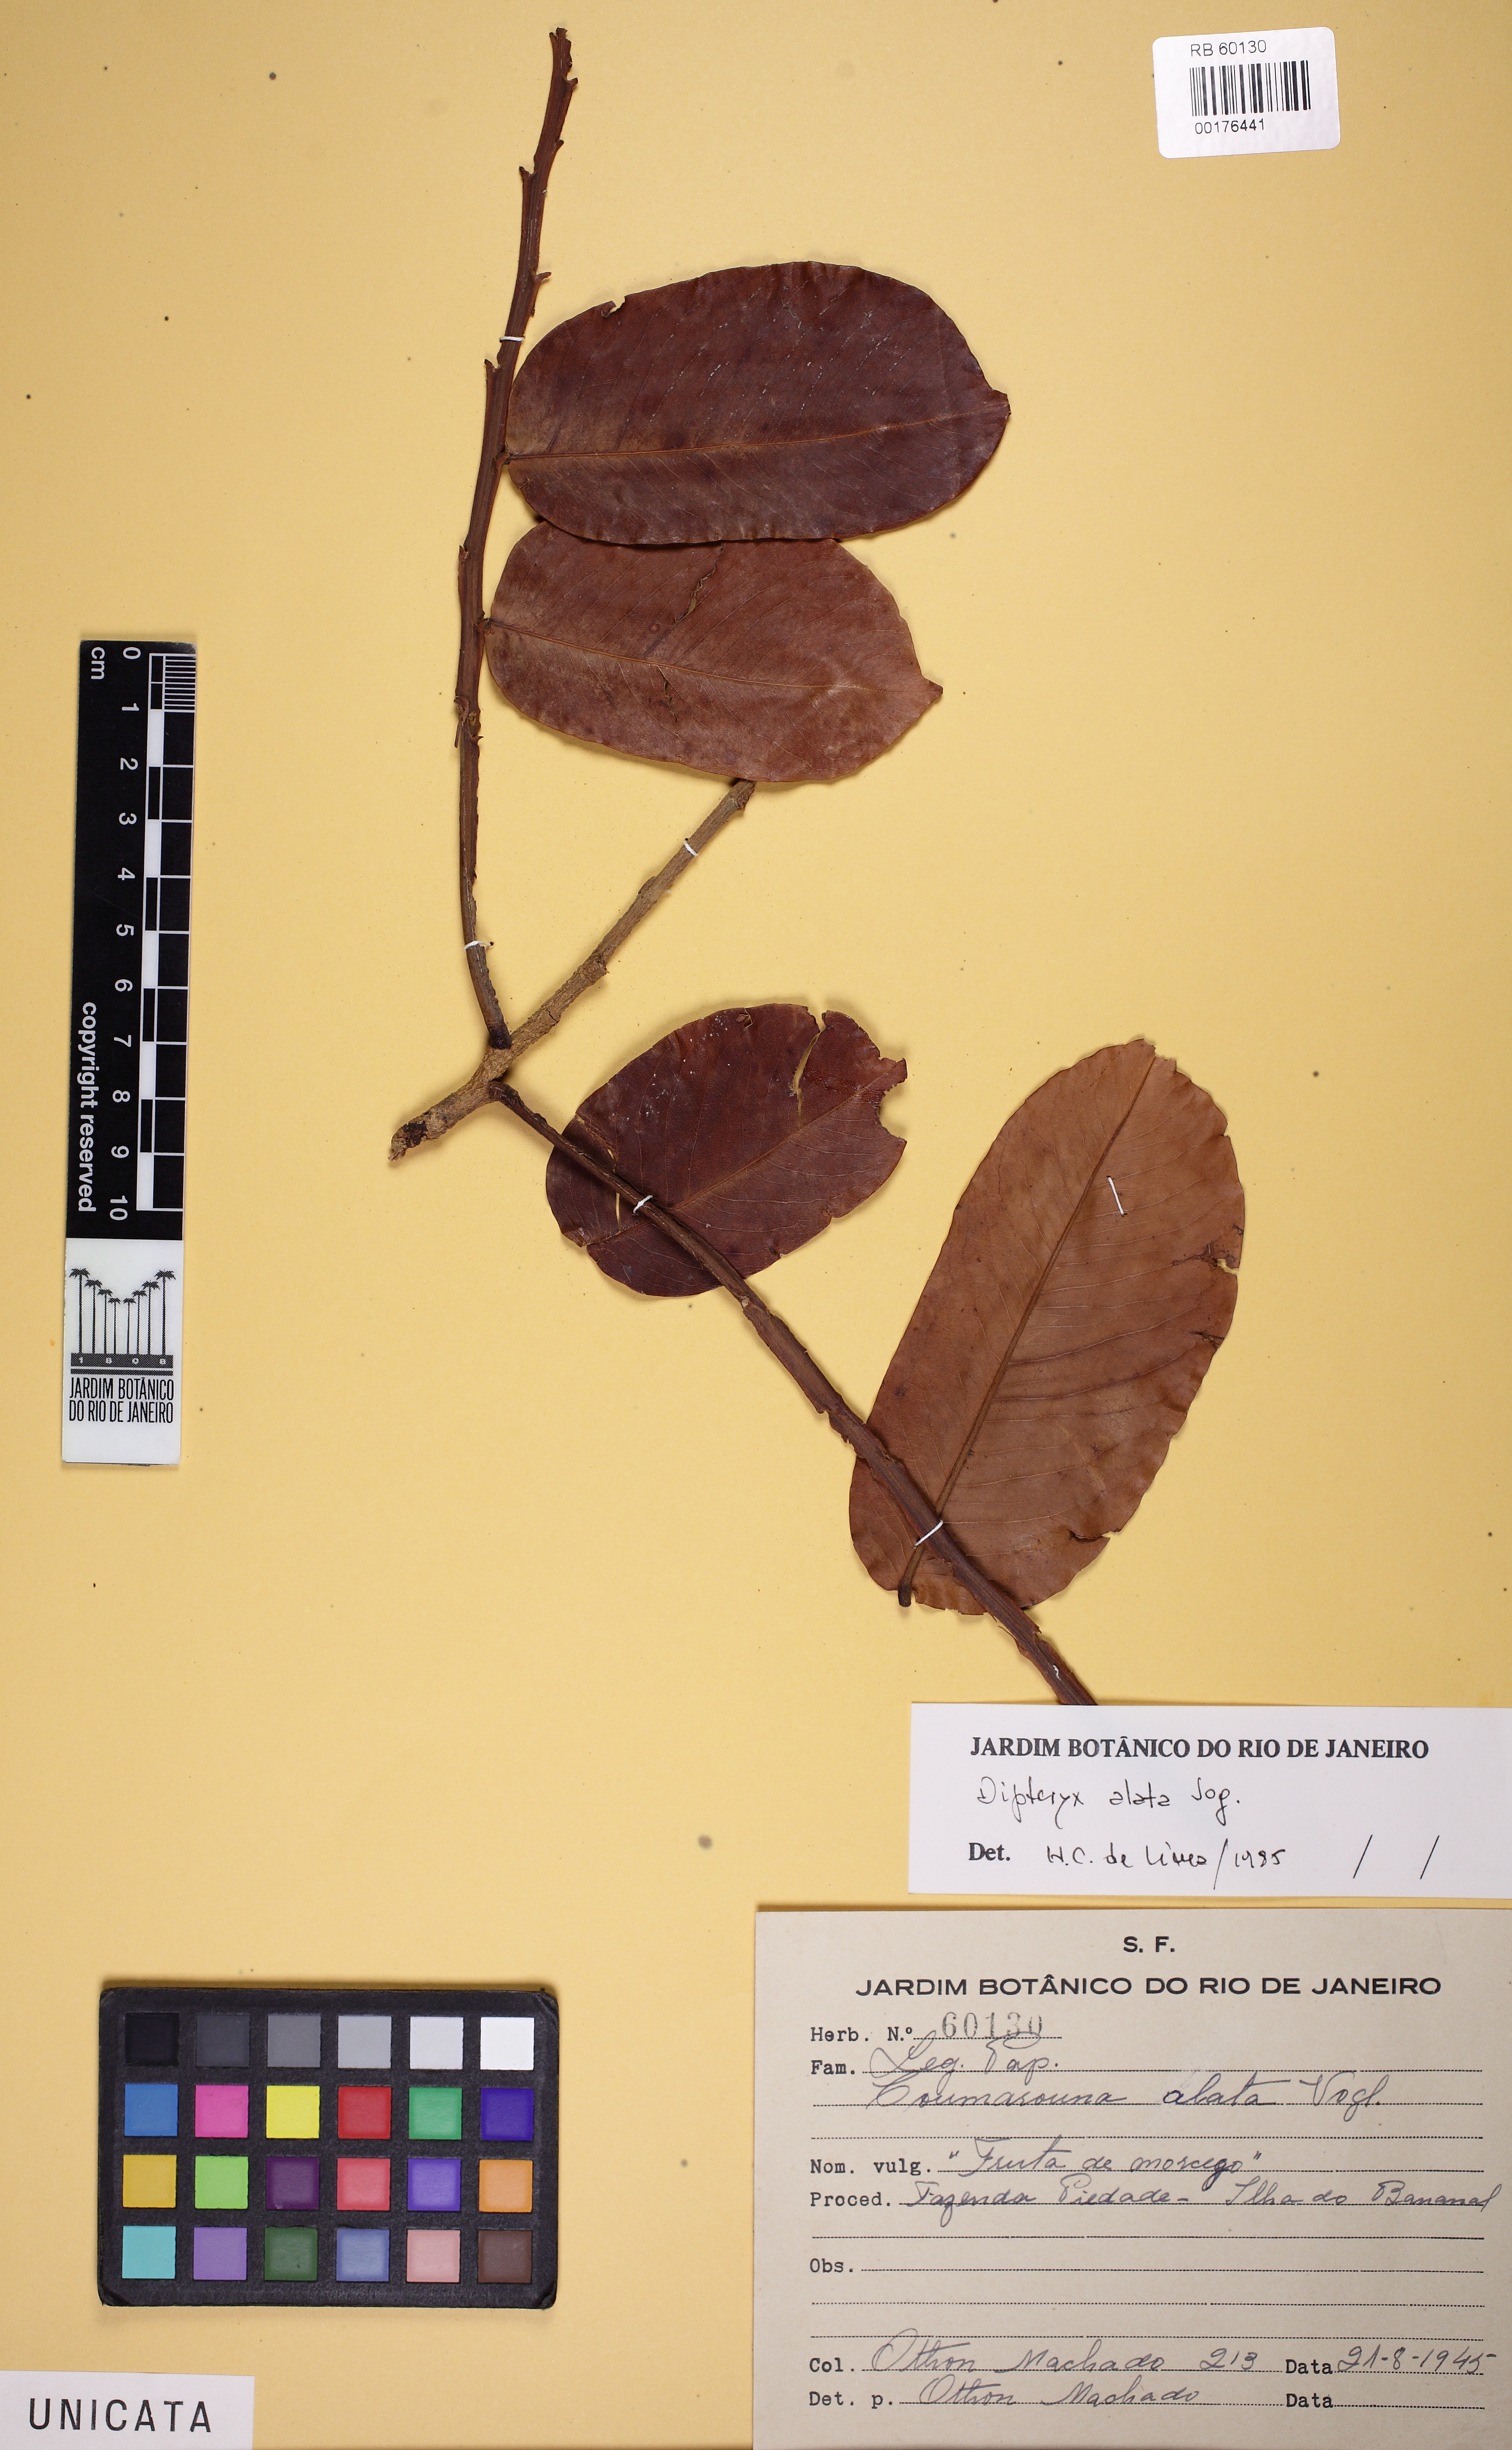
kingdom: Plantae
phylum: Tracheophyta
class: Magnoliopsida
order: Fabales
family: Fabaceae
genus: Dipteryx
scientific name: Dipteryx alata
